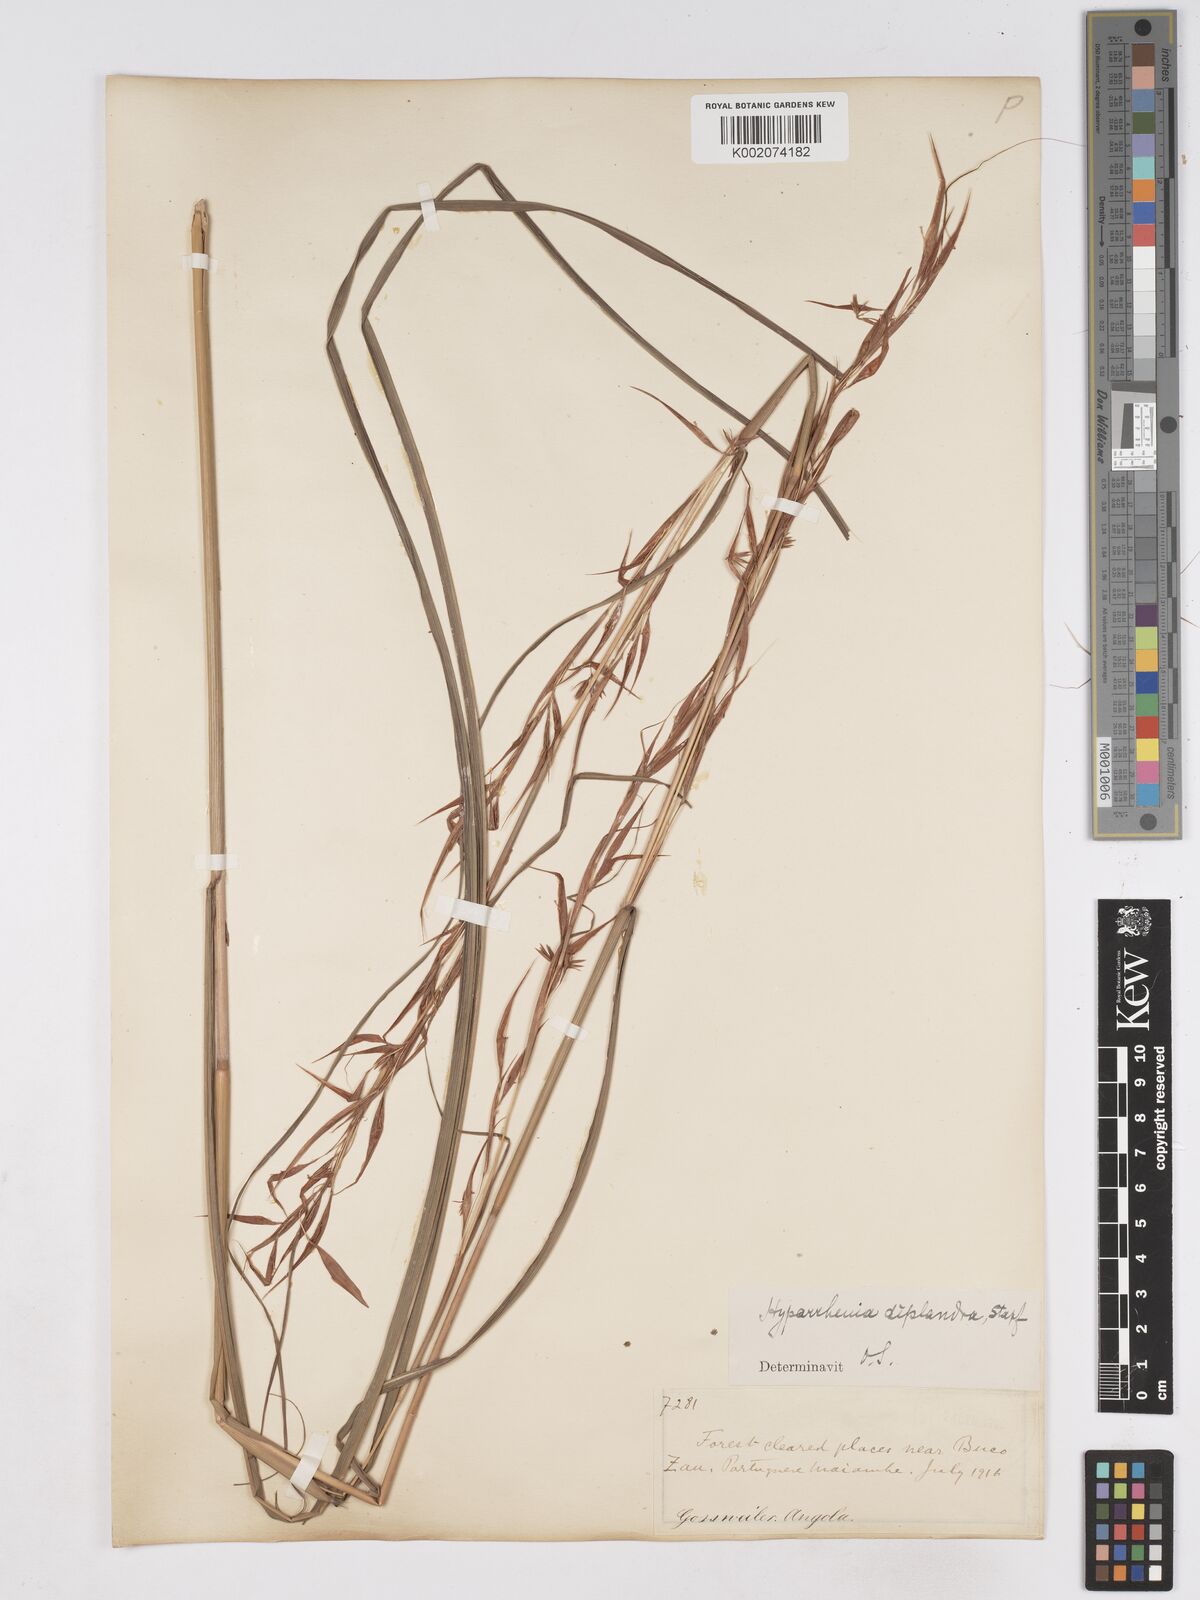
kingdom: Plantae
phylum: Tracheophyta
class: Liliopsida
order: Poales
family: Poaceae
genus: Hyparrhenia
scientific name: Hyparrhenia diplandra
